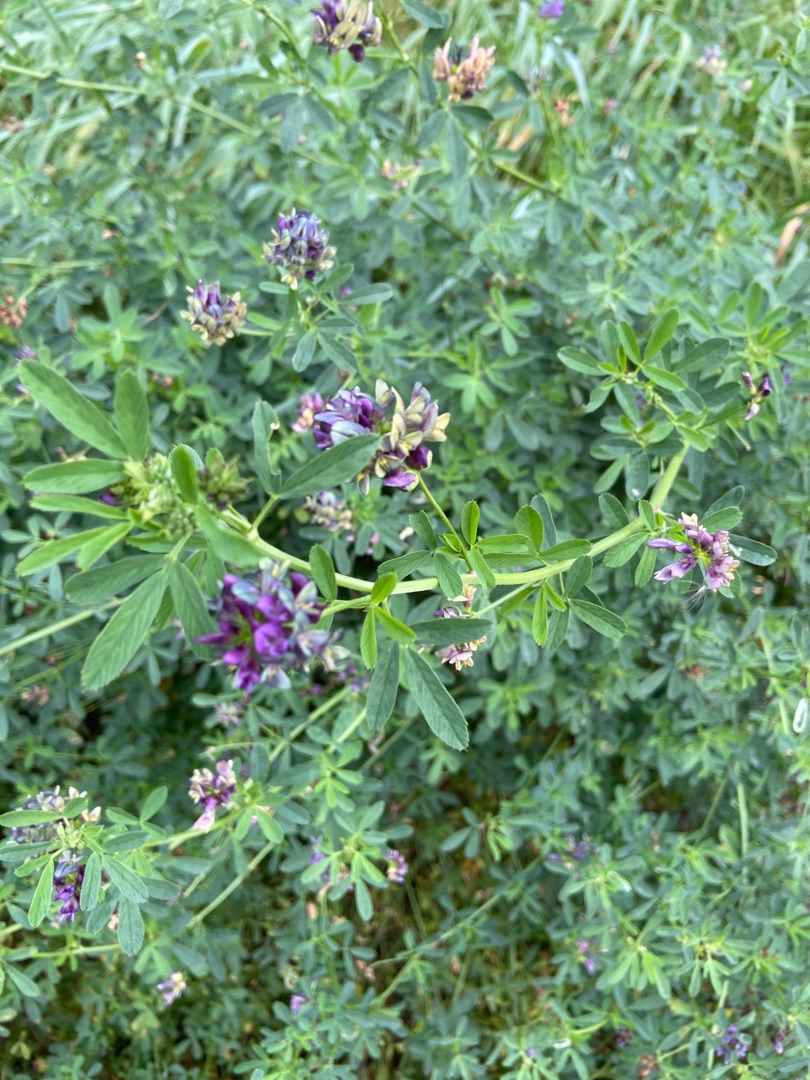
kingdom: Plantae
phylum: Tracheophyta
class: Magnoliopsida
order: Fabales
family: Fabaceae
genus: Medicago
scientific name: Medicago sativa
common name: Lucerne
